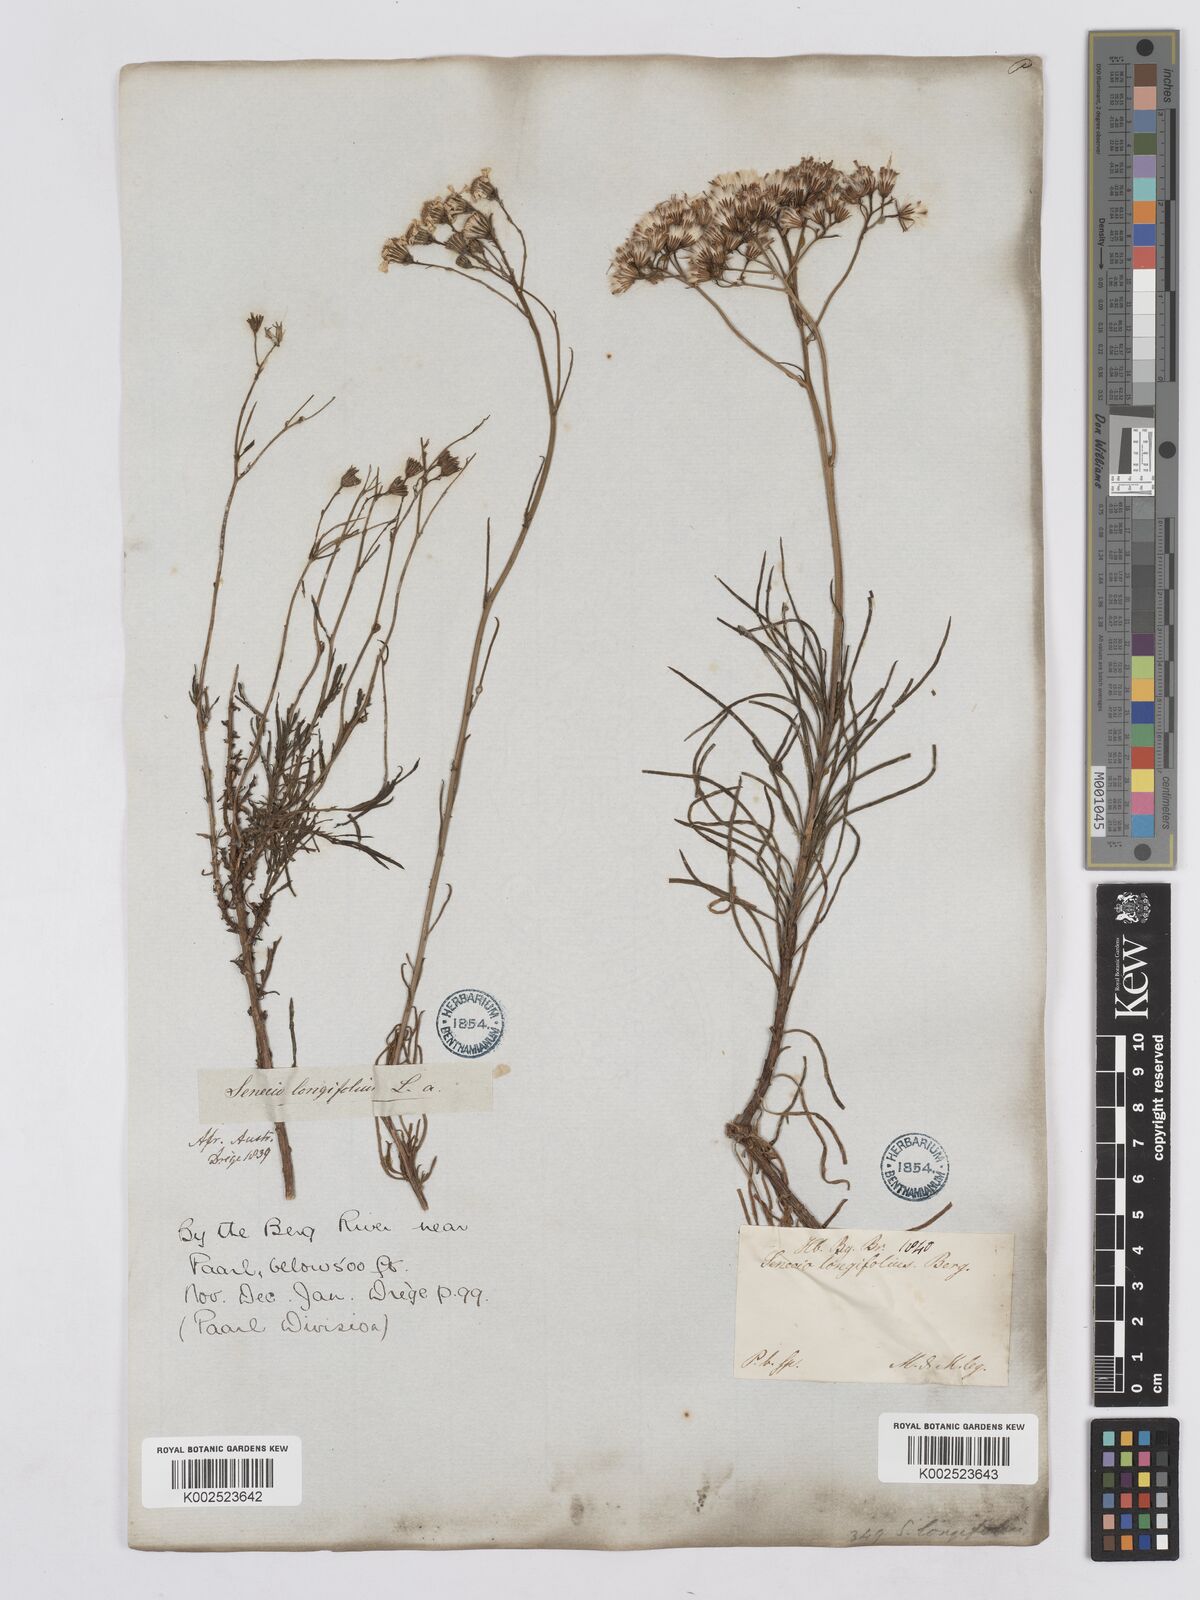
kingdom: Plantae
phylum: Tracheophyta
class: Magnoliopsida
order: Asterales
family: Asteraceae
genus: Senecio
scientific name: Senecio linifolius
